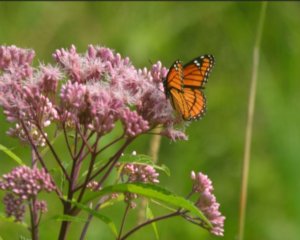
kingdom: Animalia
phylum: Arthropoda
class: Insecta
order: Lepidoptera
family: Nymphalidae
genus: Limenitis
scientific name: Limenitis archippus
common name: Viceroy
